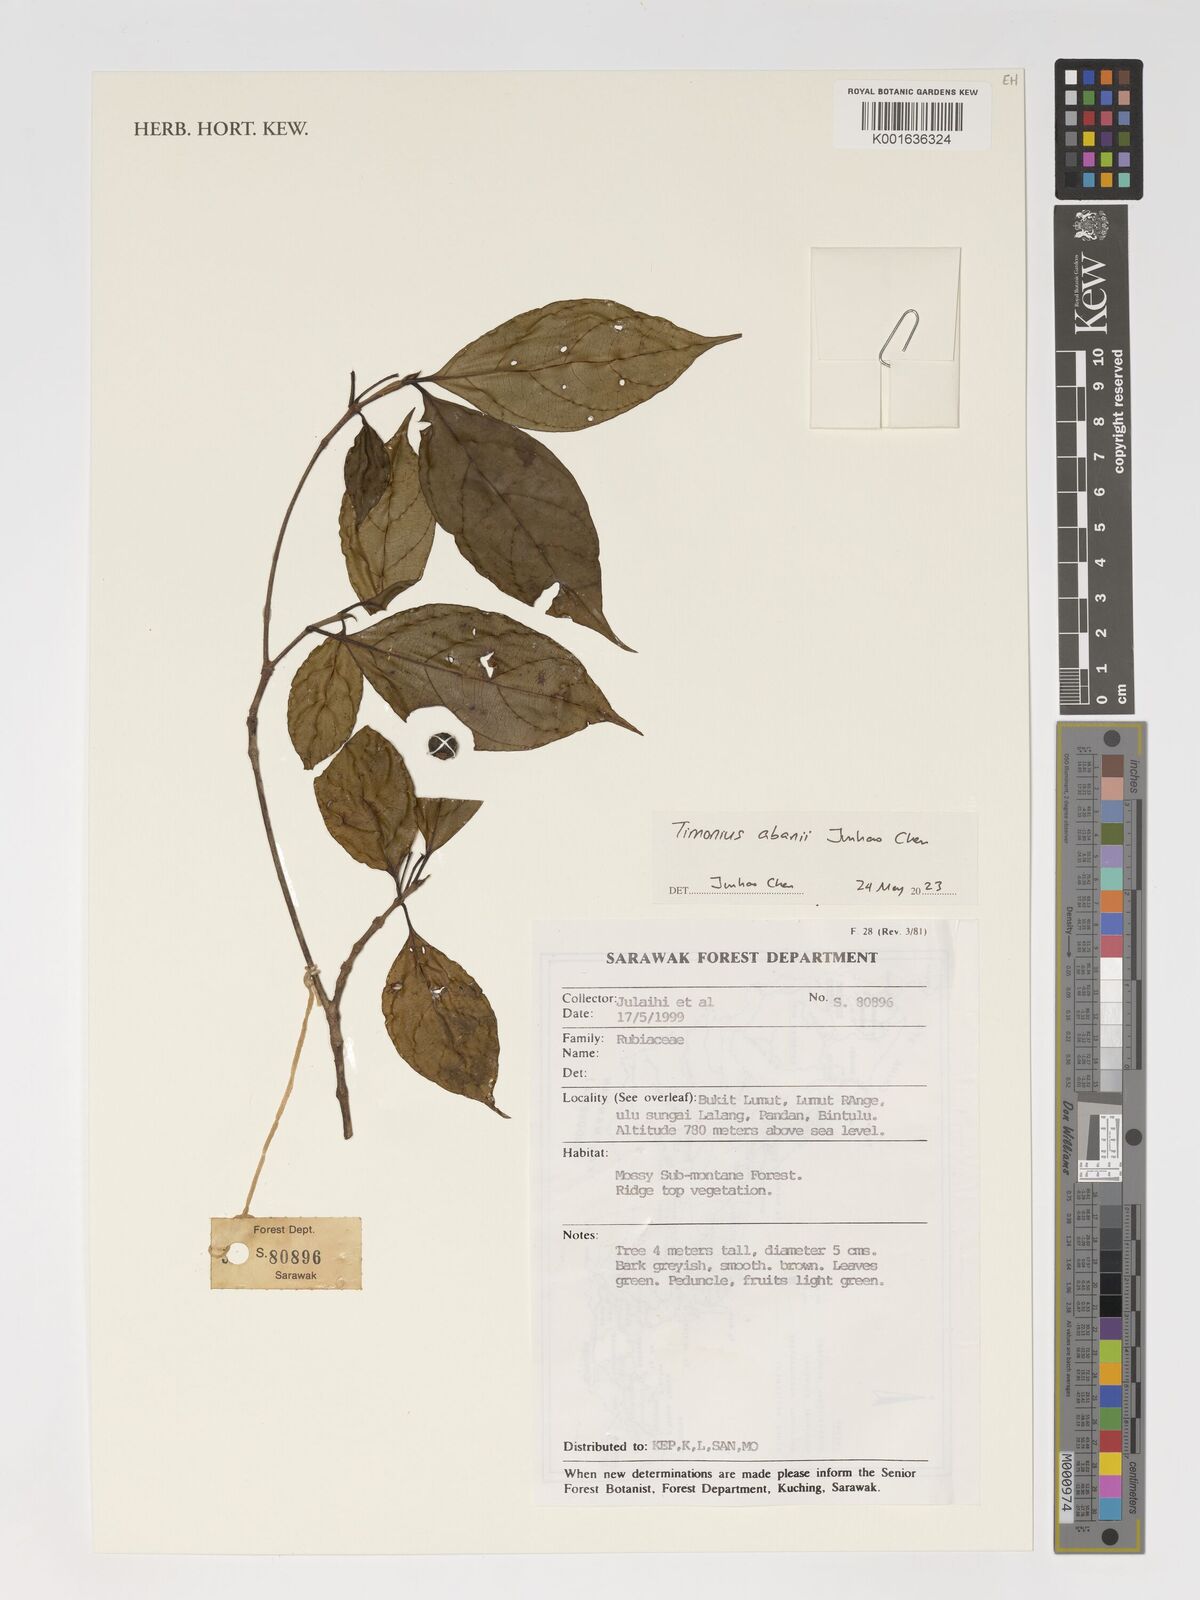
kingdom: Plantae
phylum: Tracheophyta
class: Magnoliopsida
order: Gentianales
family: Rubiaceae
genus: Timonius
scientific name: Timonius abanii
